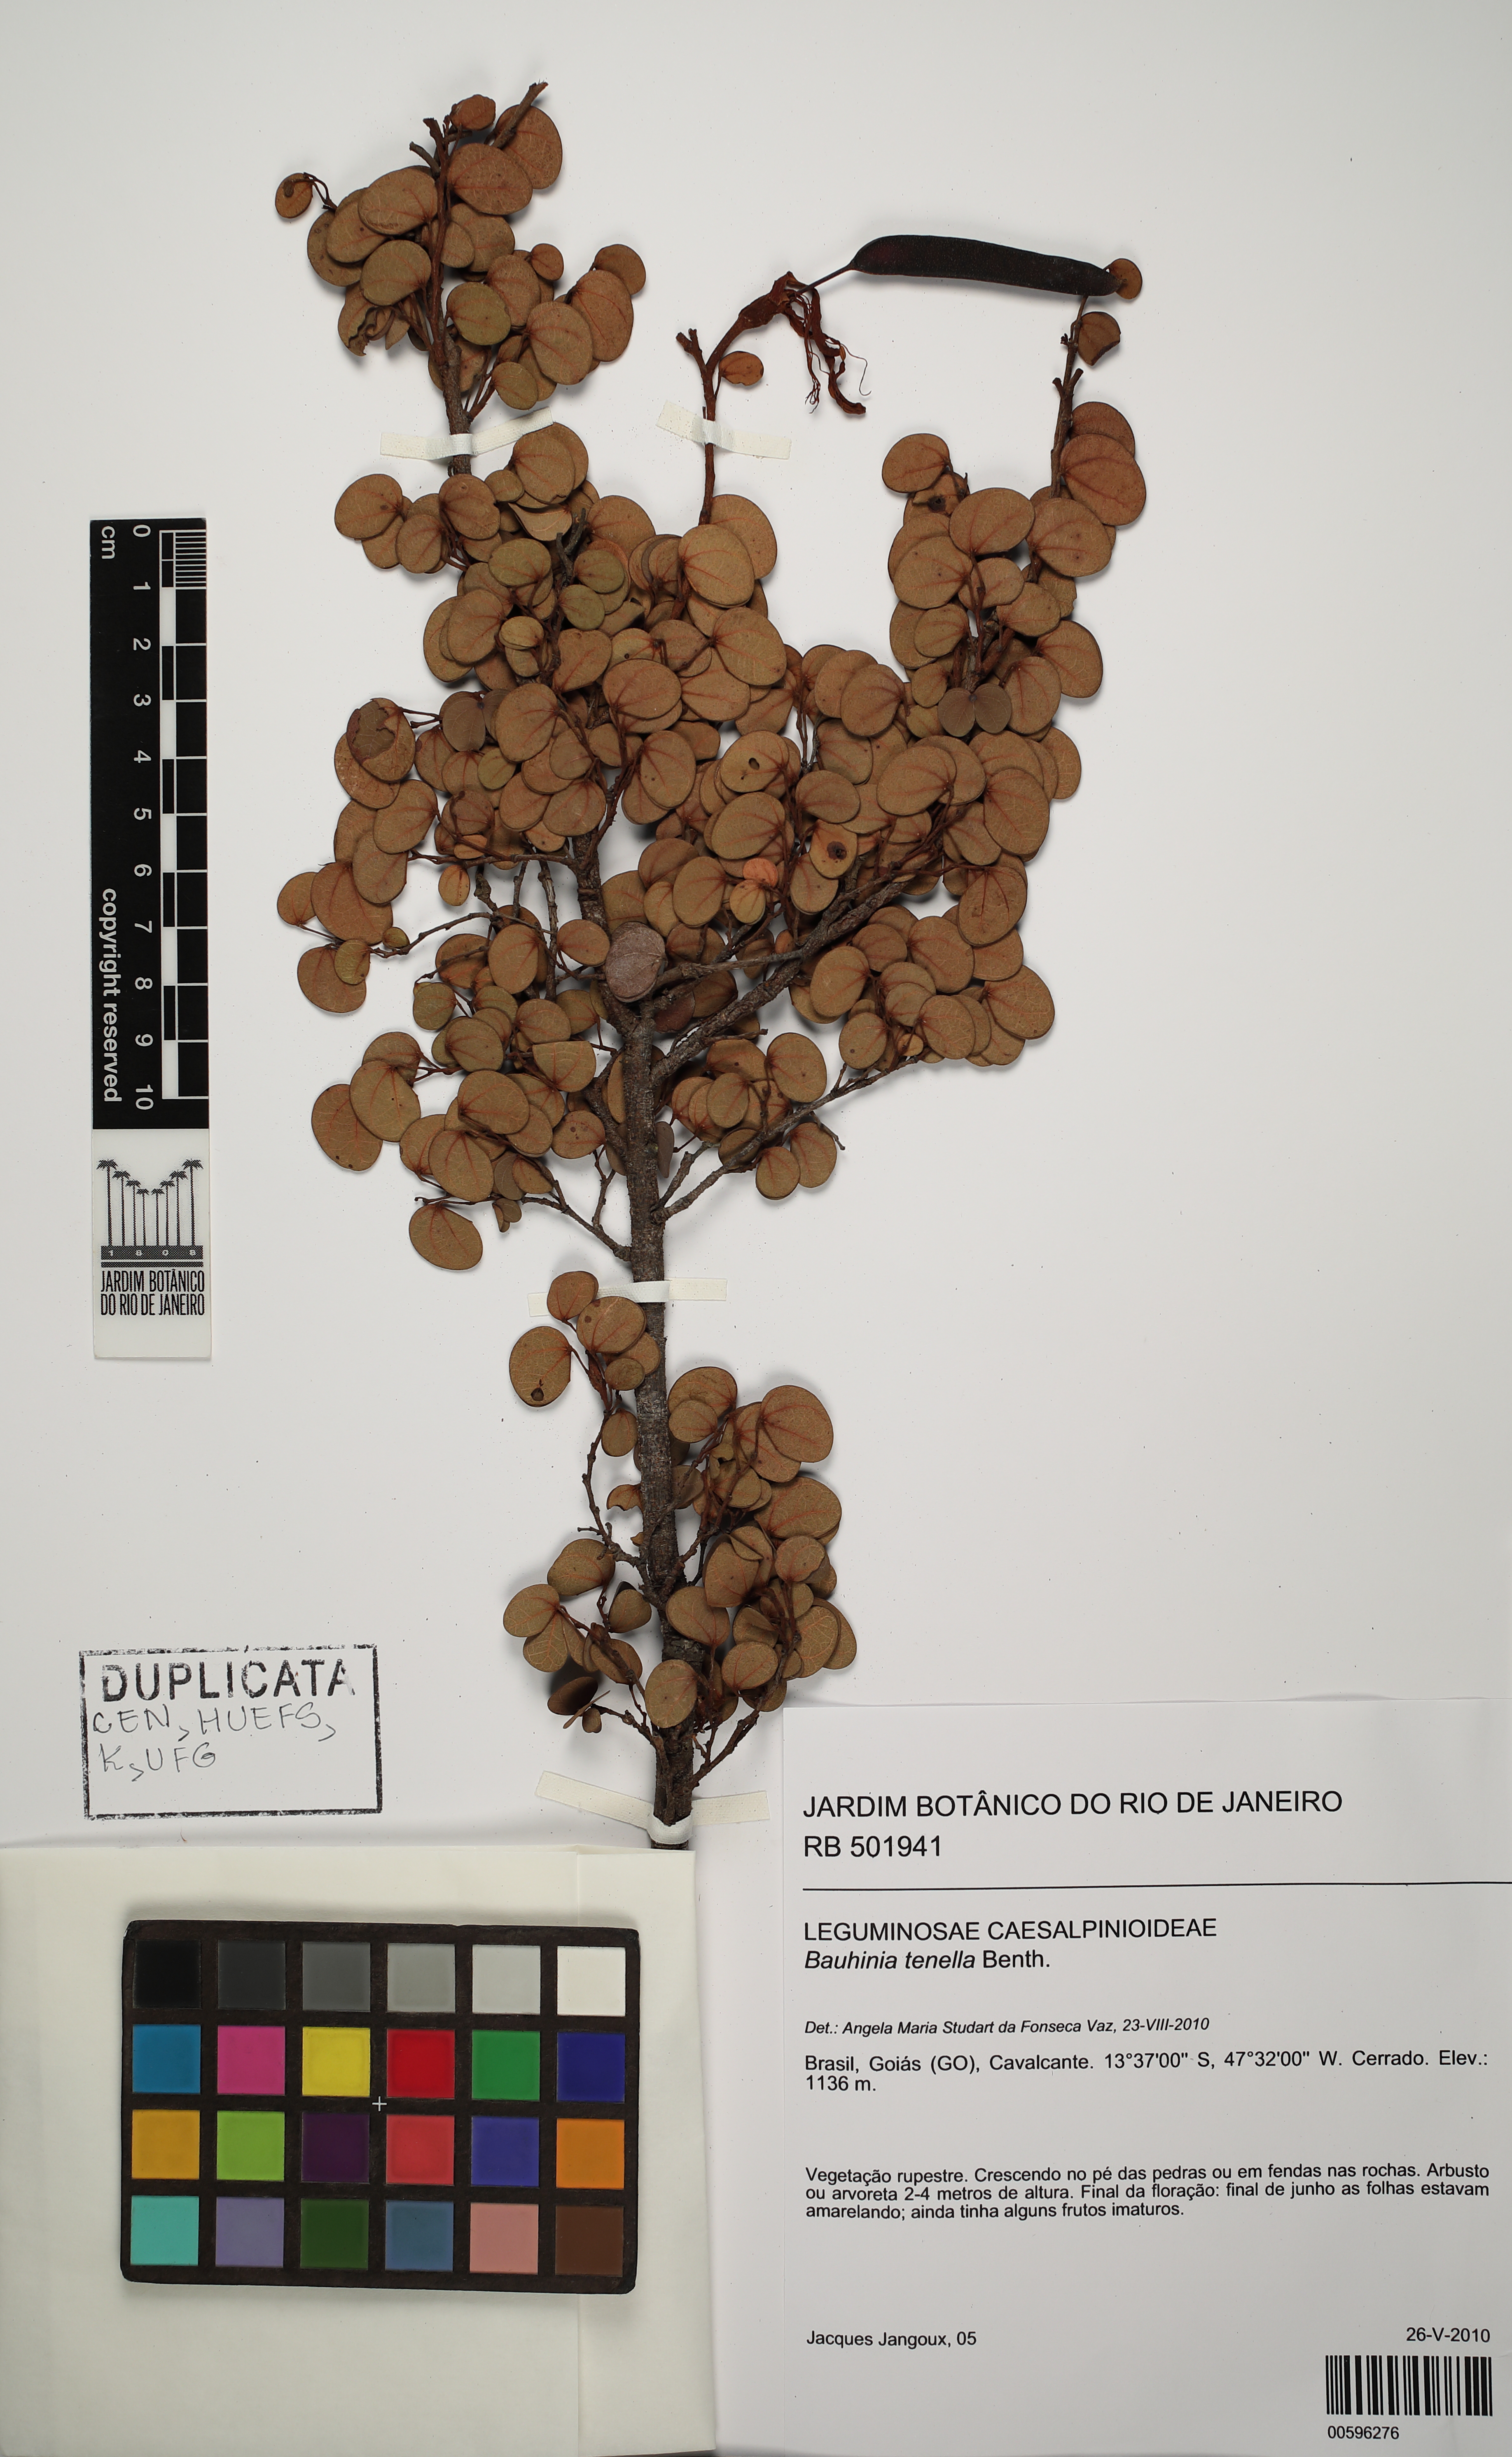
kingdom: Plantae
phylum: Tracheophyta
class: Magnoliopsida
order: Fabales
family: Fabaceae
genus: Bauhinia
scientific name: Bauhinia tenella
